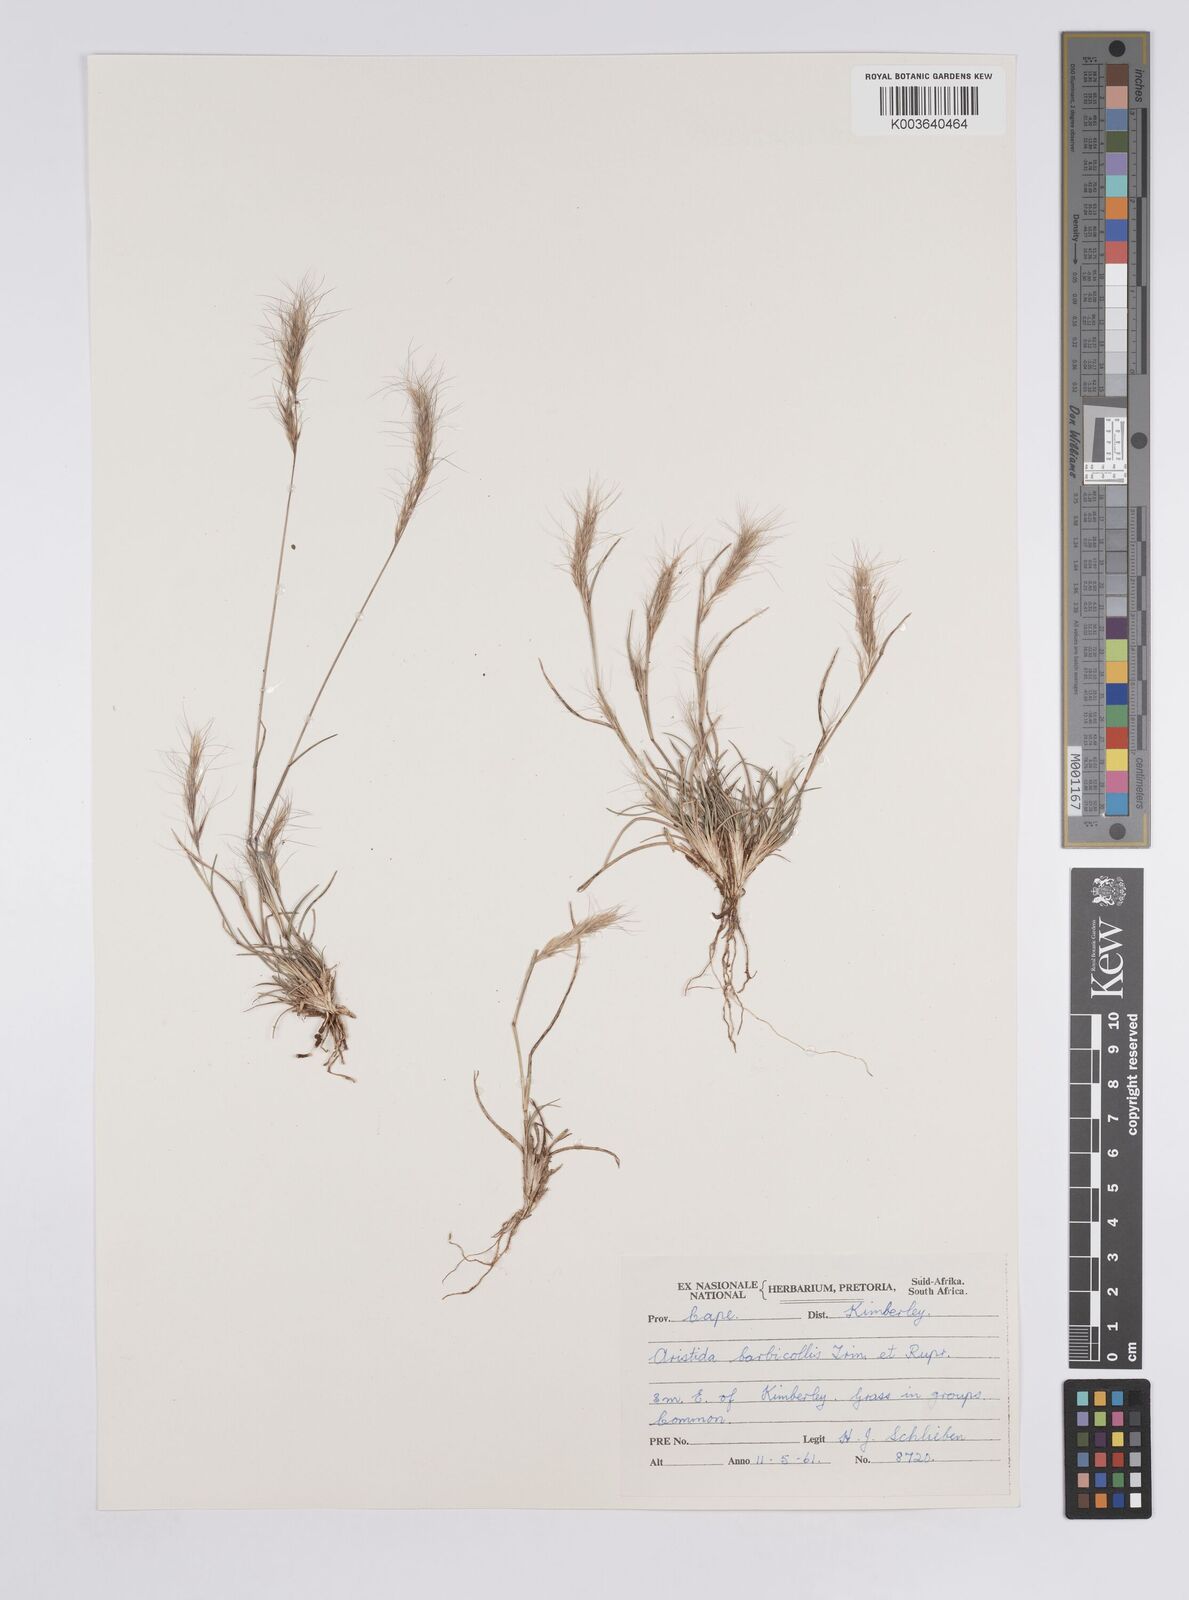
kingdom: Plantae
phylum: Tracheophyta
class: Liliopsida
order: Poales
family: Poaceae
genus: Aristida
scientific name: Aristida barbicollis
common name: Spreading prickle grass
